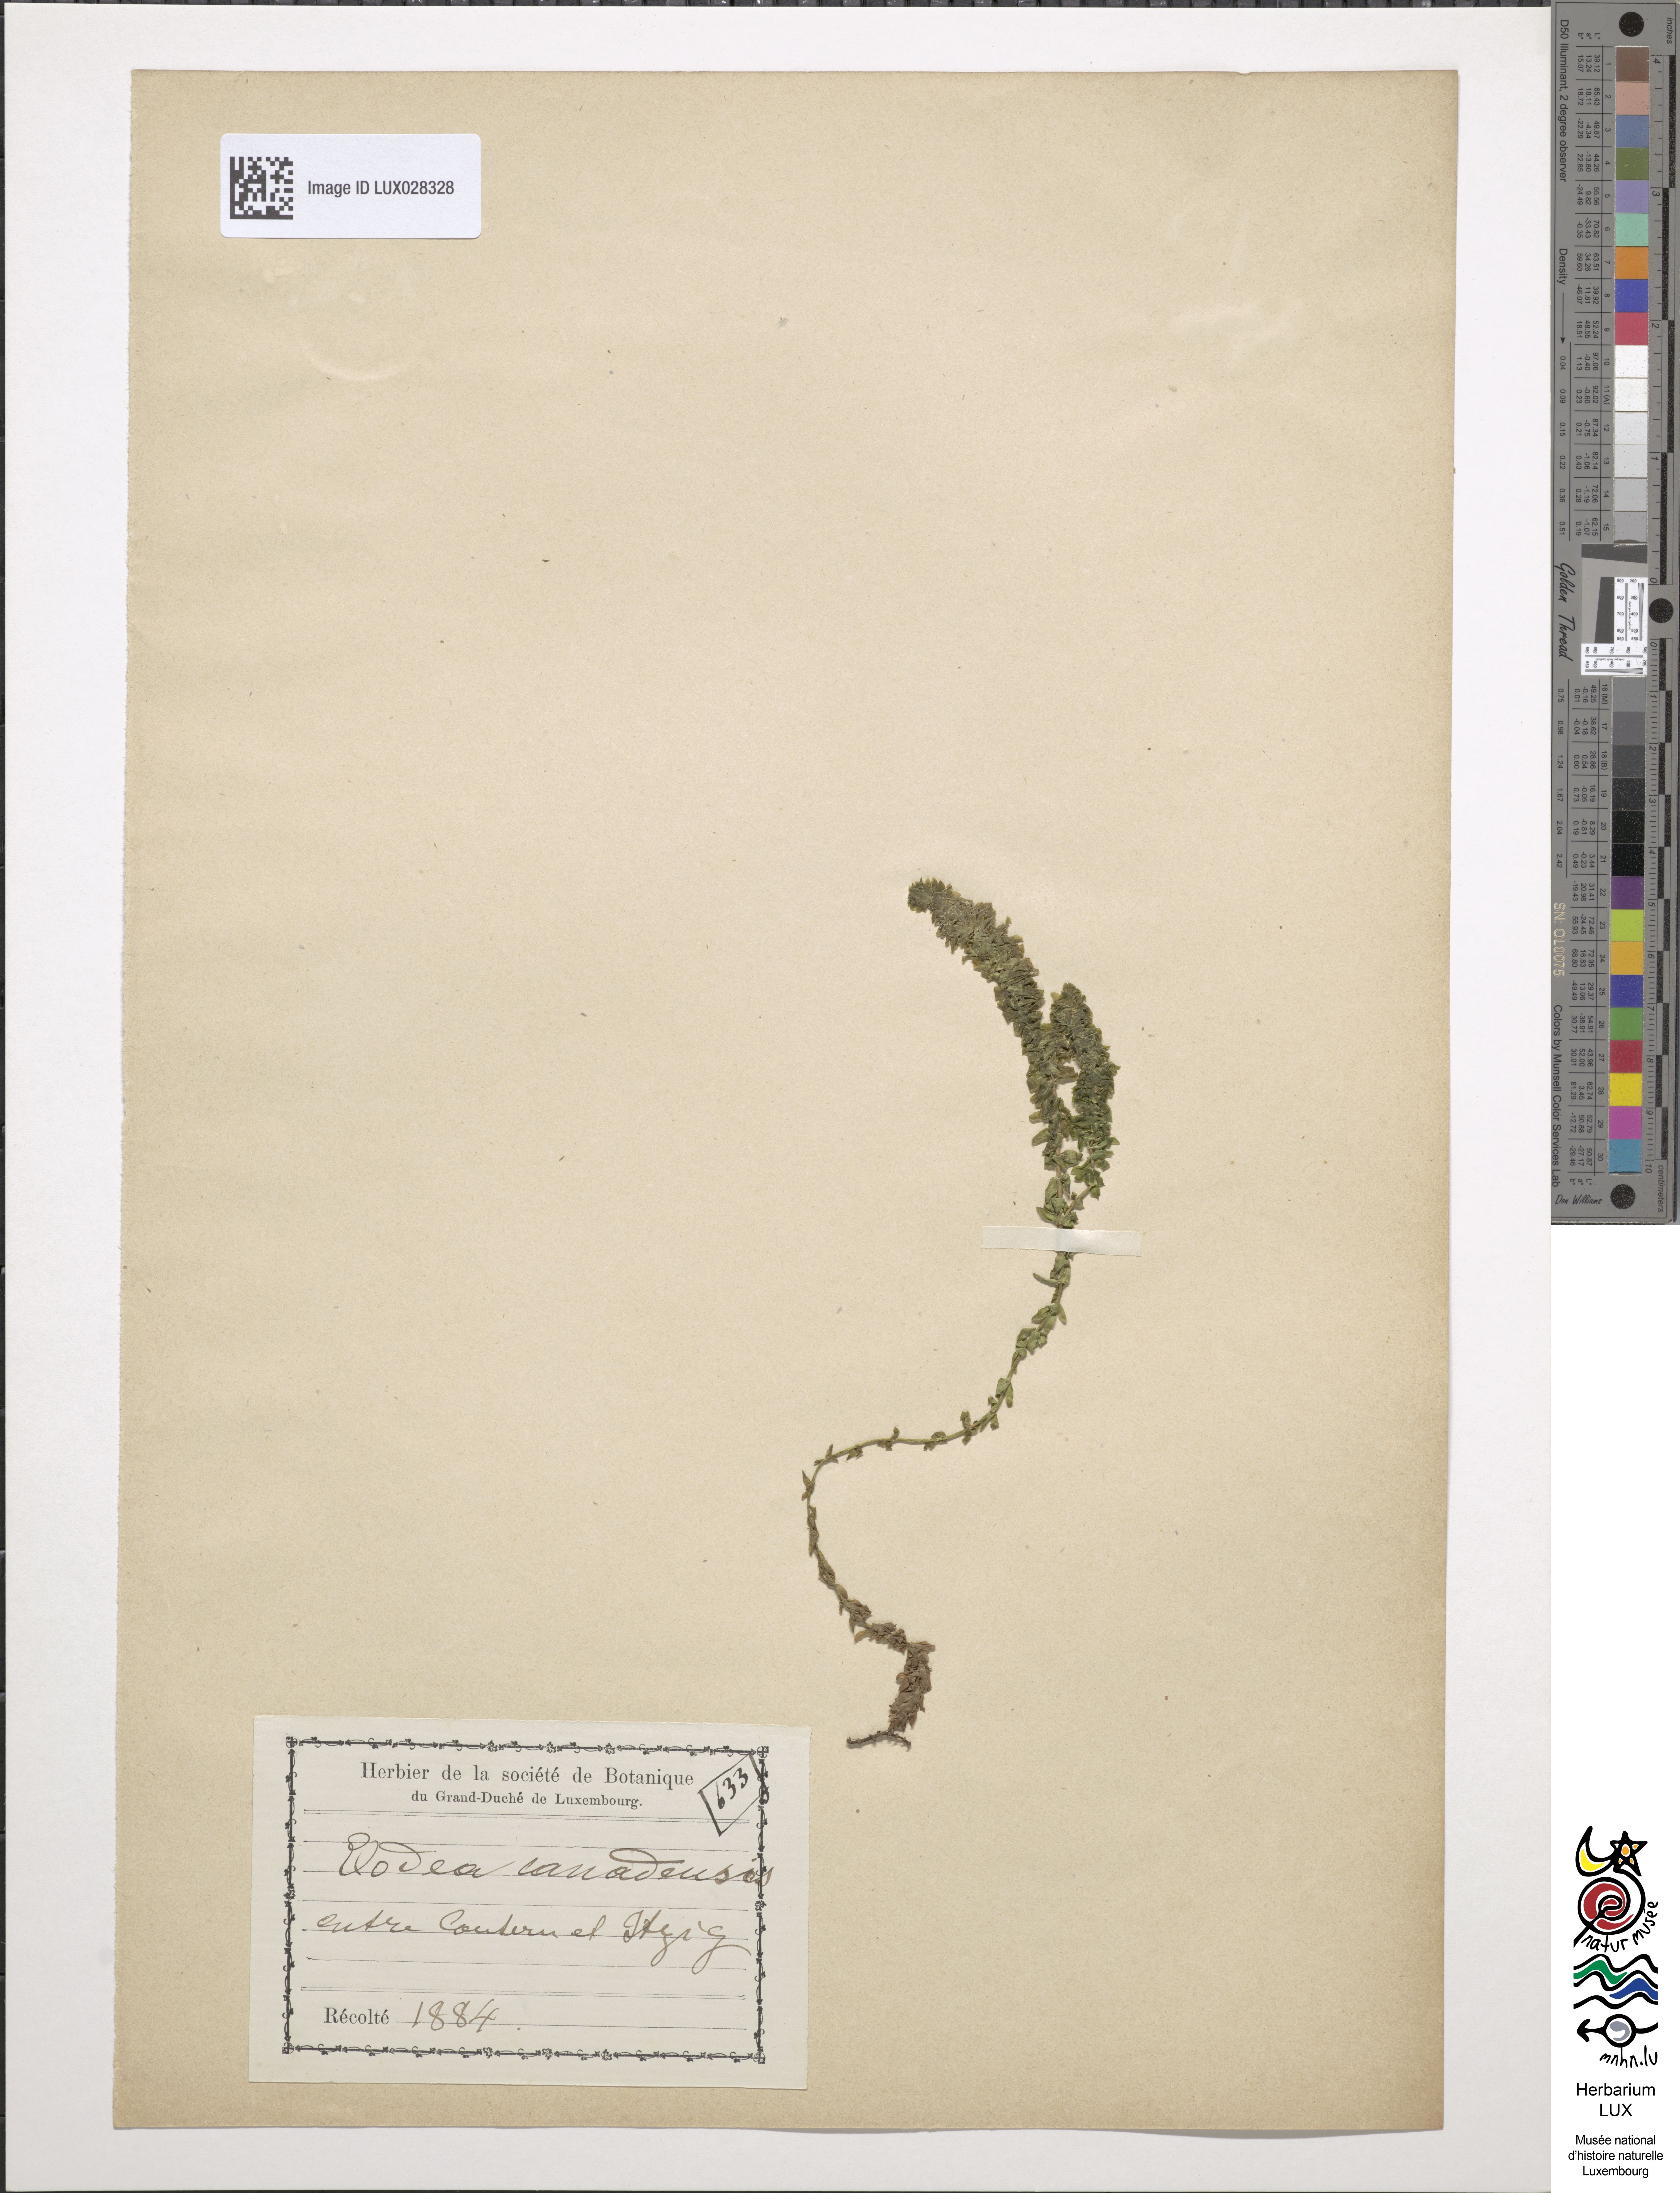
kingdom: Plantae
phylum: Tracheophyta
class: Liliopsida
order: Alismatales
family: Hydrocharitaceae
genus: Elodea
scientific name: Elodea canadensis
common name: Canadian waterweed
